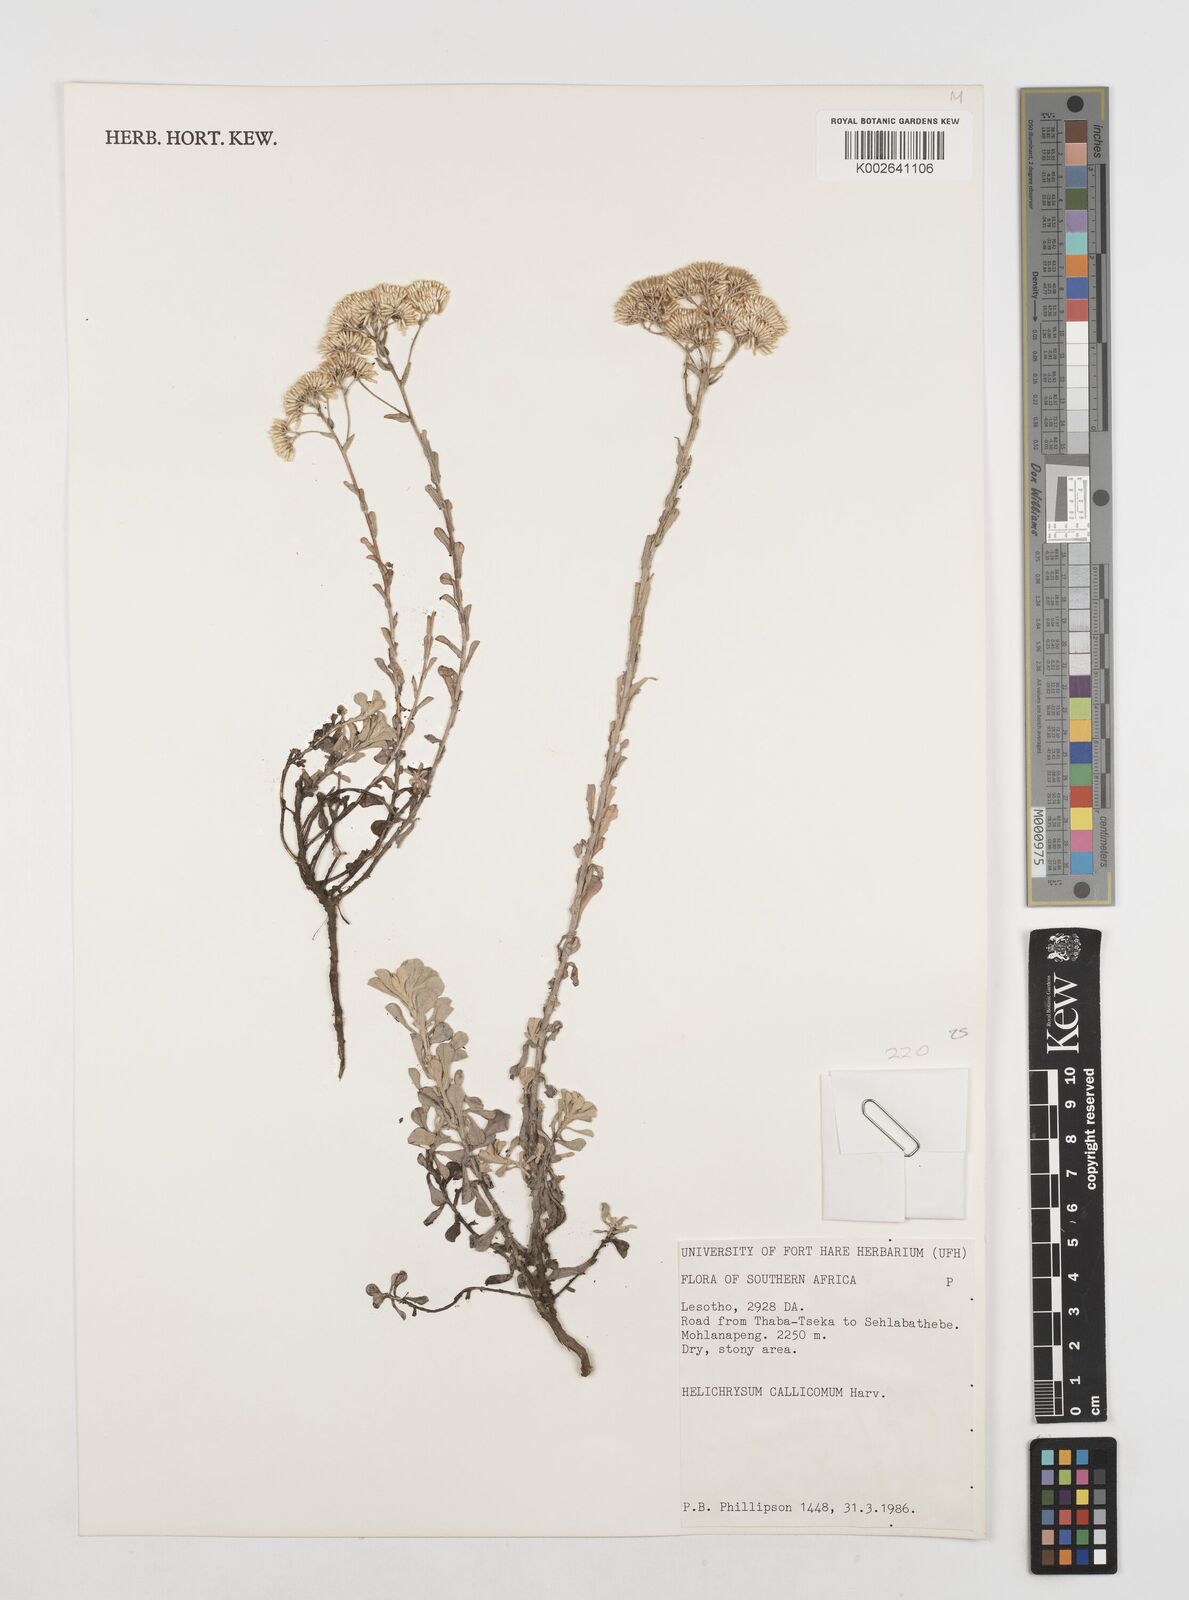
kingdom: Plantae
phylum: Tracheophyta
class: Magnoliopsida
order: Asterales
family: Asteraceae
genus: Helichrysum
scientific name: Helichrysum callicomum
